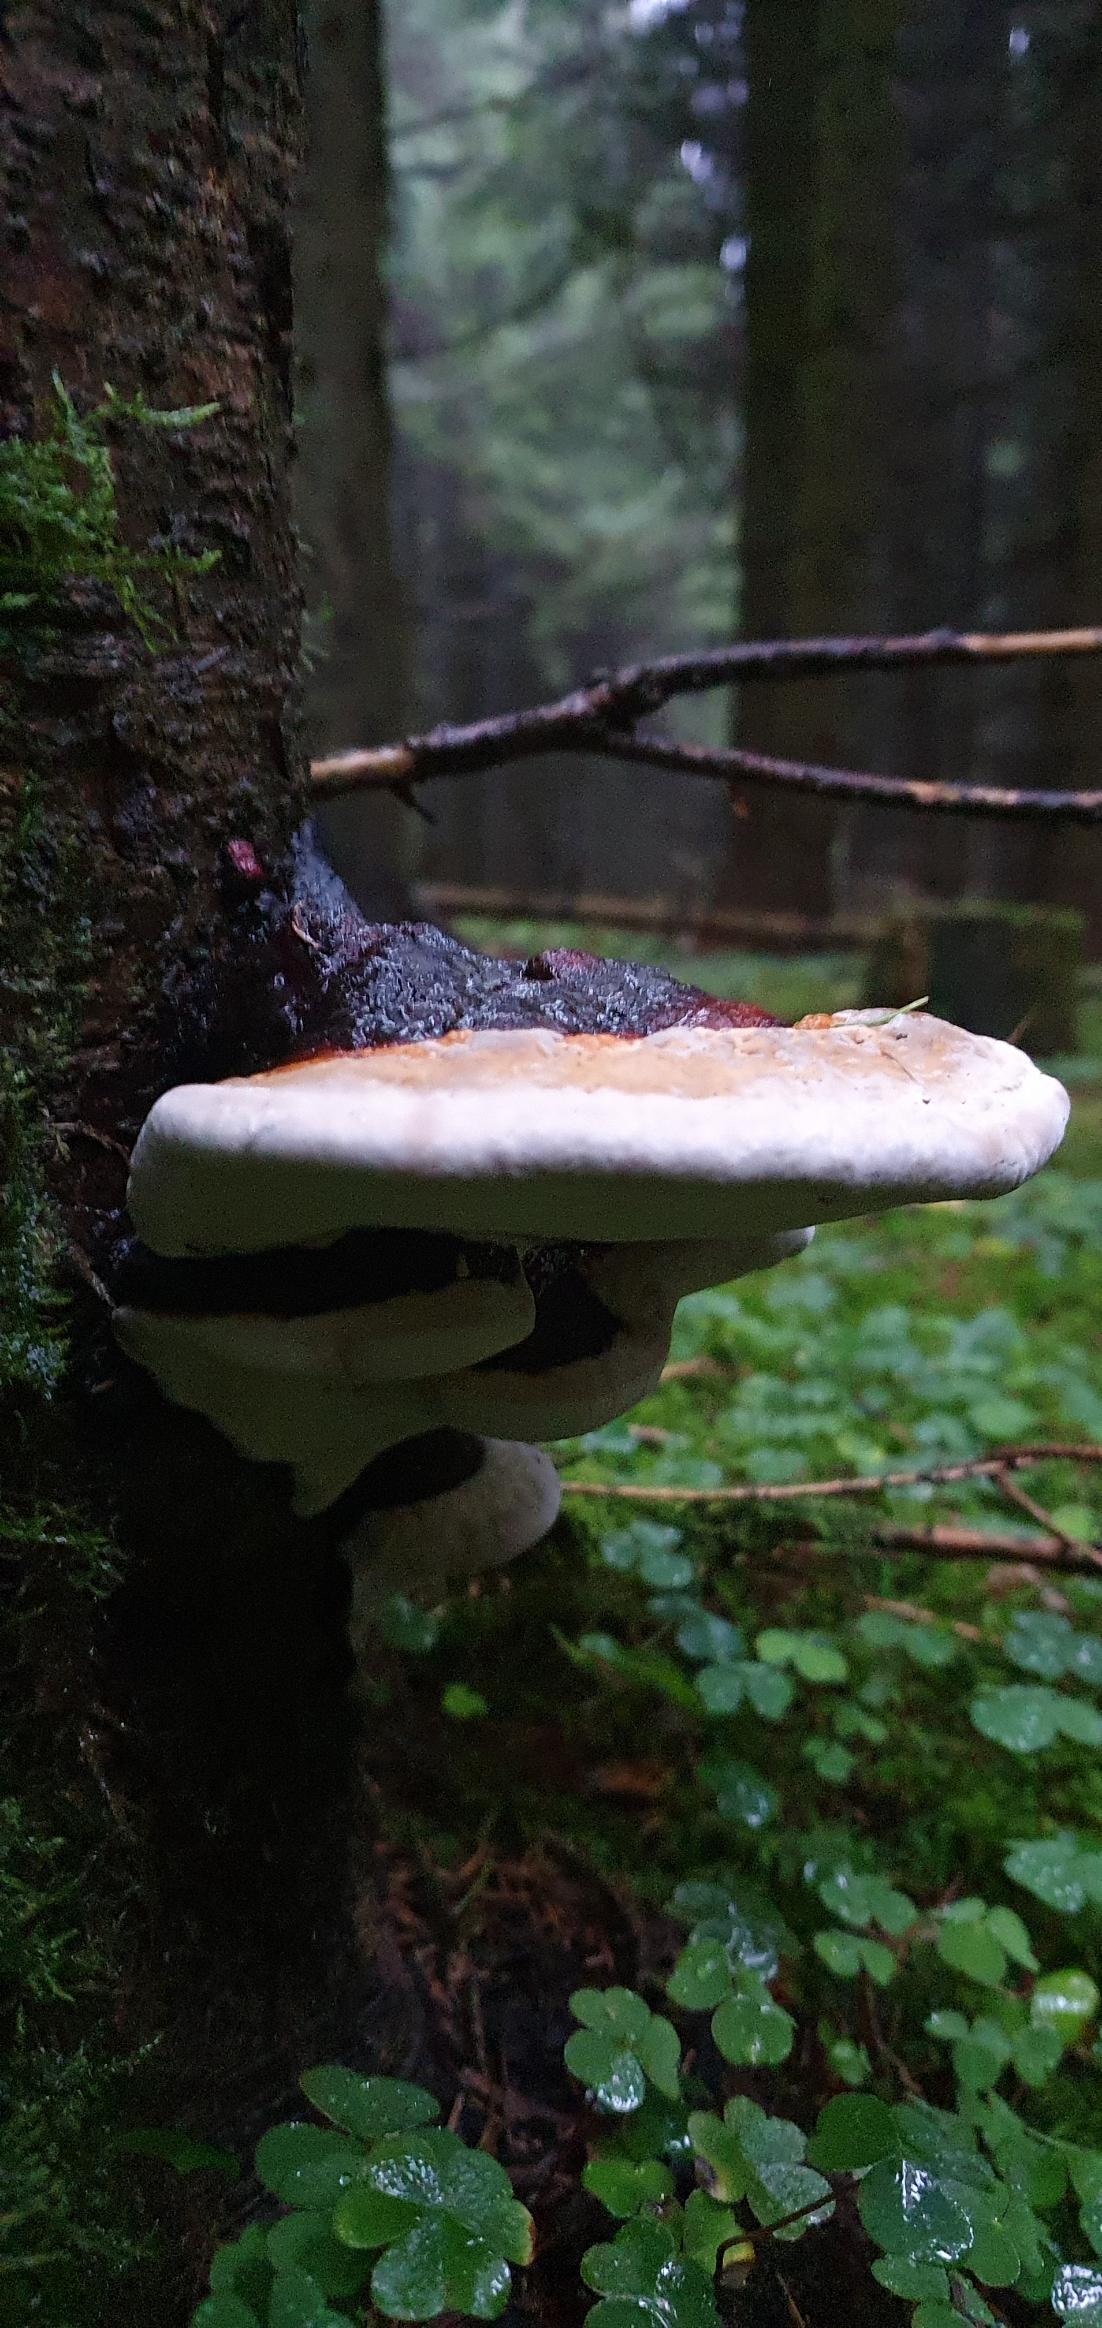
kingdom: Fungi
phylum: Basidiomycota
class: Agaricomycetes
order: Polyporales
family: Fomitopsidaceae
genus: Fomitopsis
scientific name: Fomitopsis pinicola
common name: Randbæltet hovporesvamp
